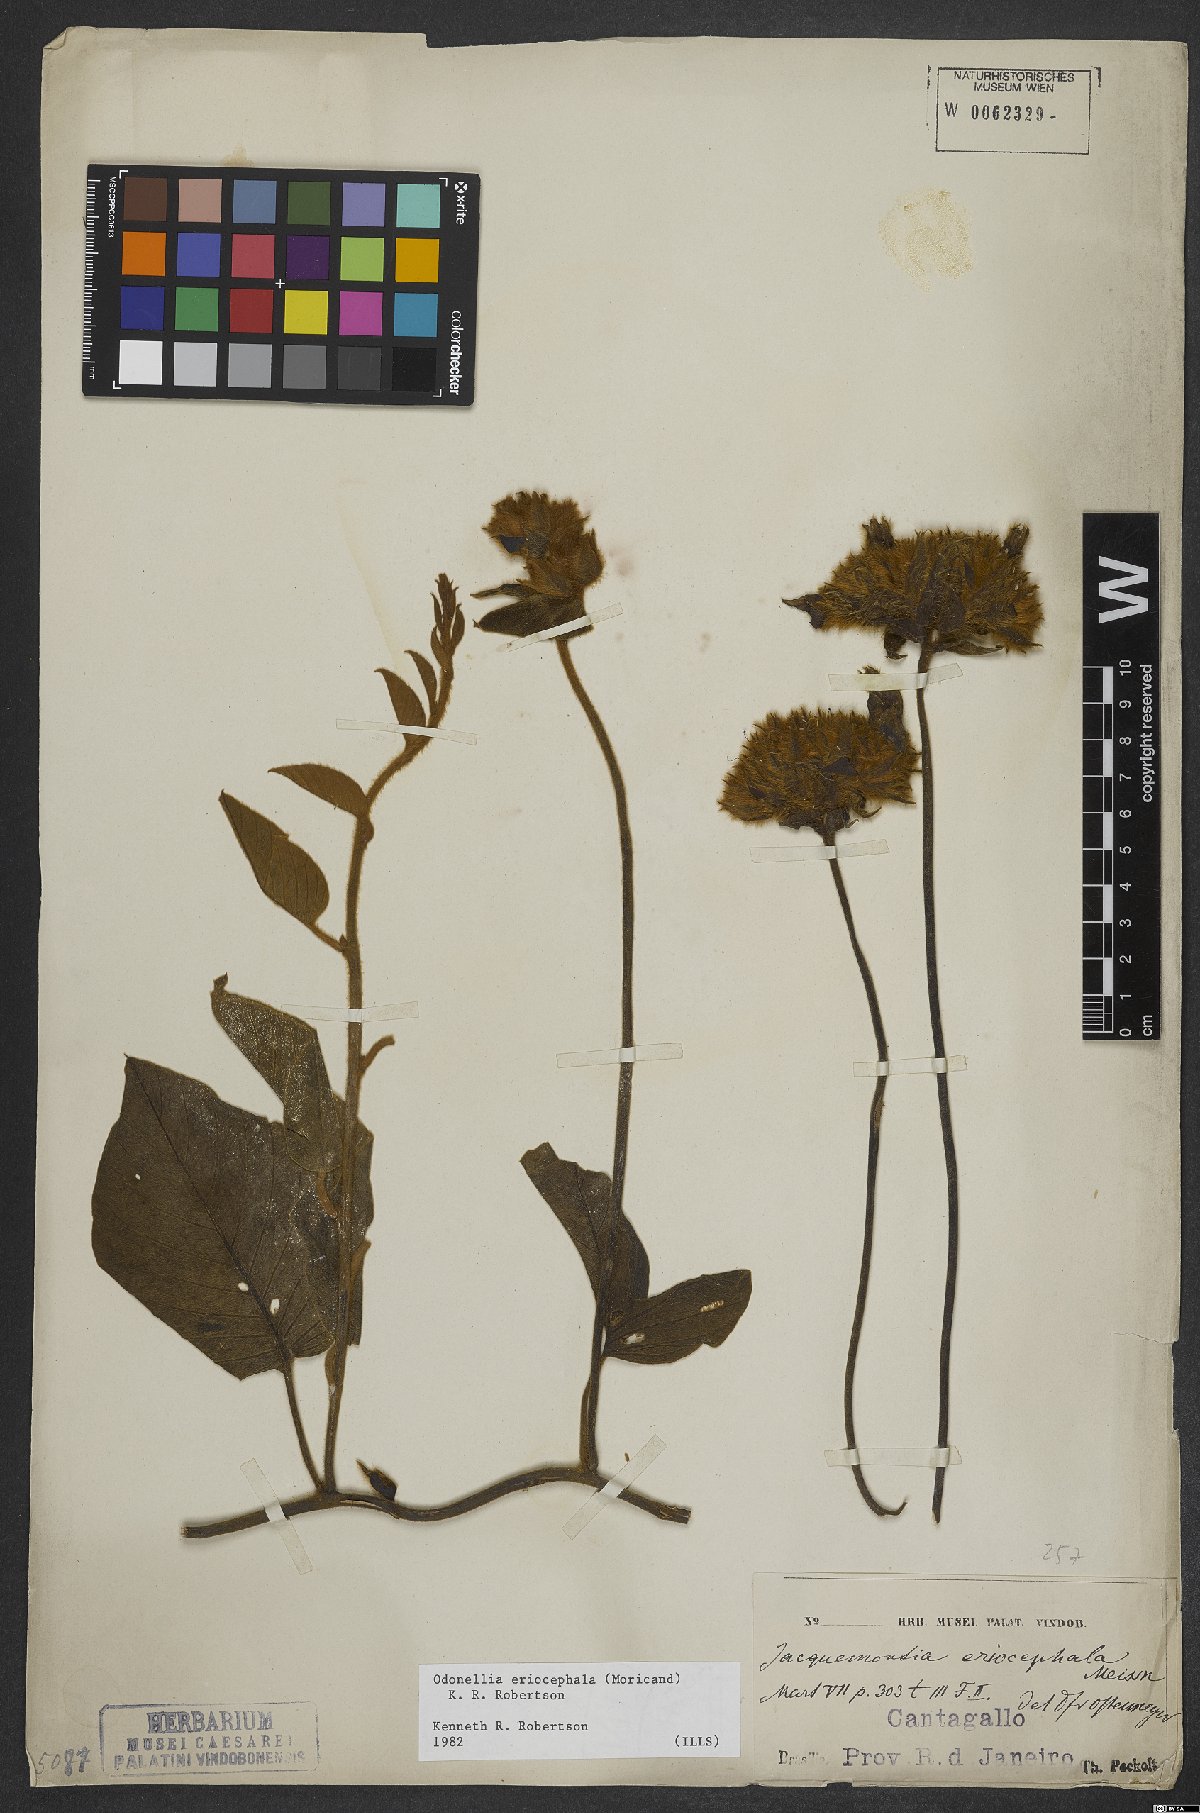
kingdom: Plantae
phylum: Tracheophyta
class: Magnoliopsida
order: Solanales
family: Convolvulaceae
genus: Odonellia
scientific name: Odonellia eriocephala
